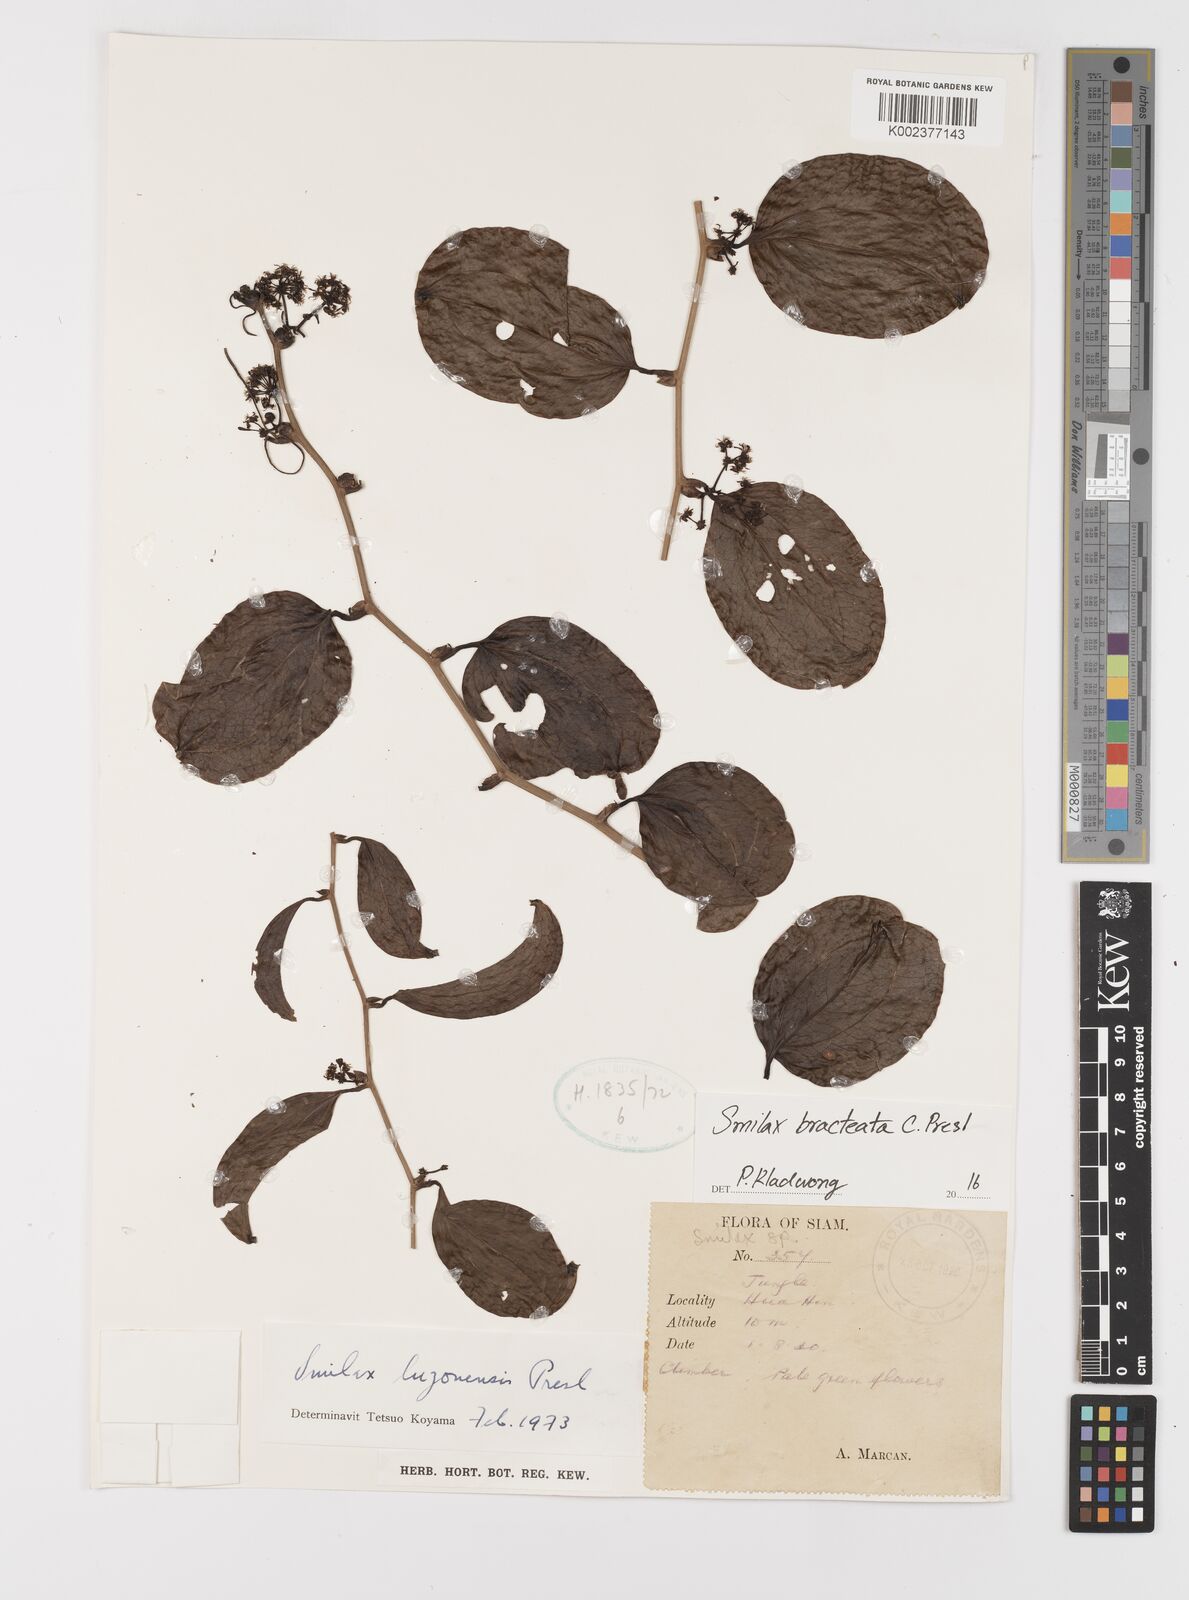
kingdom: Plantae
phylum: Tracheophyta
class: Liliopsida
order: Liliales
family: Smilacaceae
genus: Smilax
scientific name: Smilax bracteata
